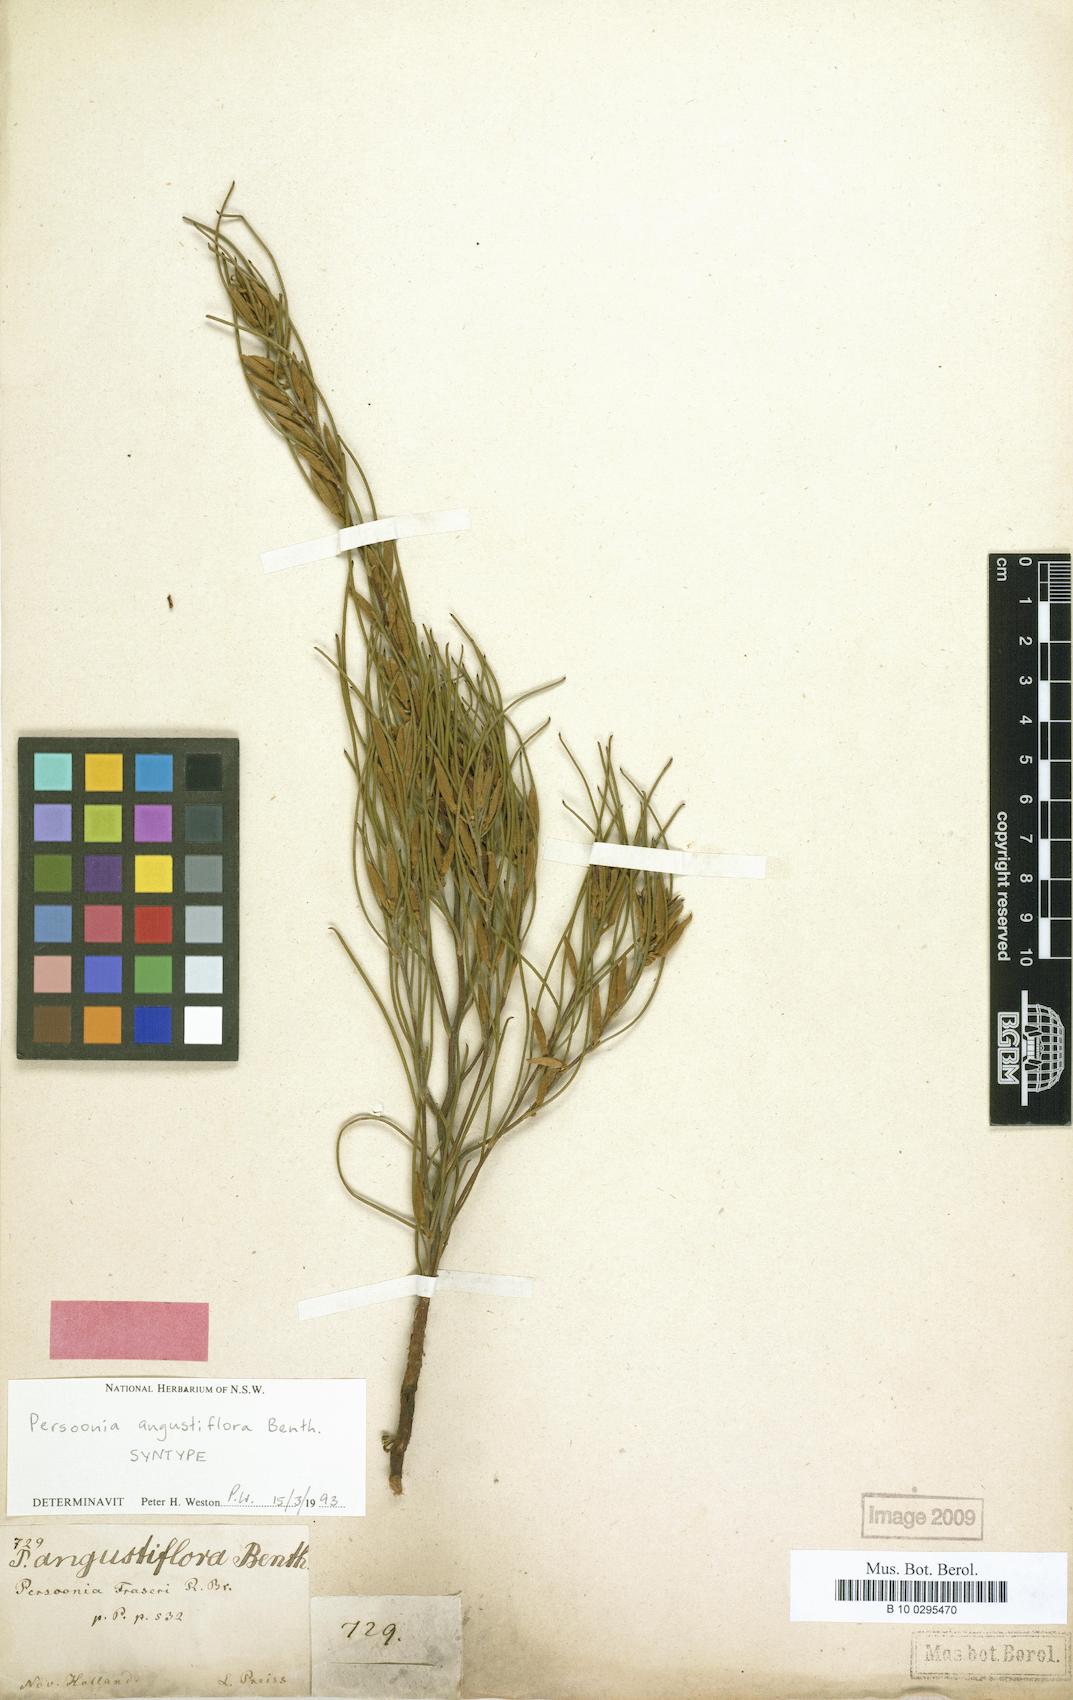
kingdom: Plantae
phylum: Tracheophyta
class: Magnoliopsida
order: Proteales
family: Proteaceae
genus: Persoonia
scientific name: Persoonia angustiflora
